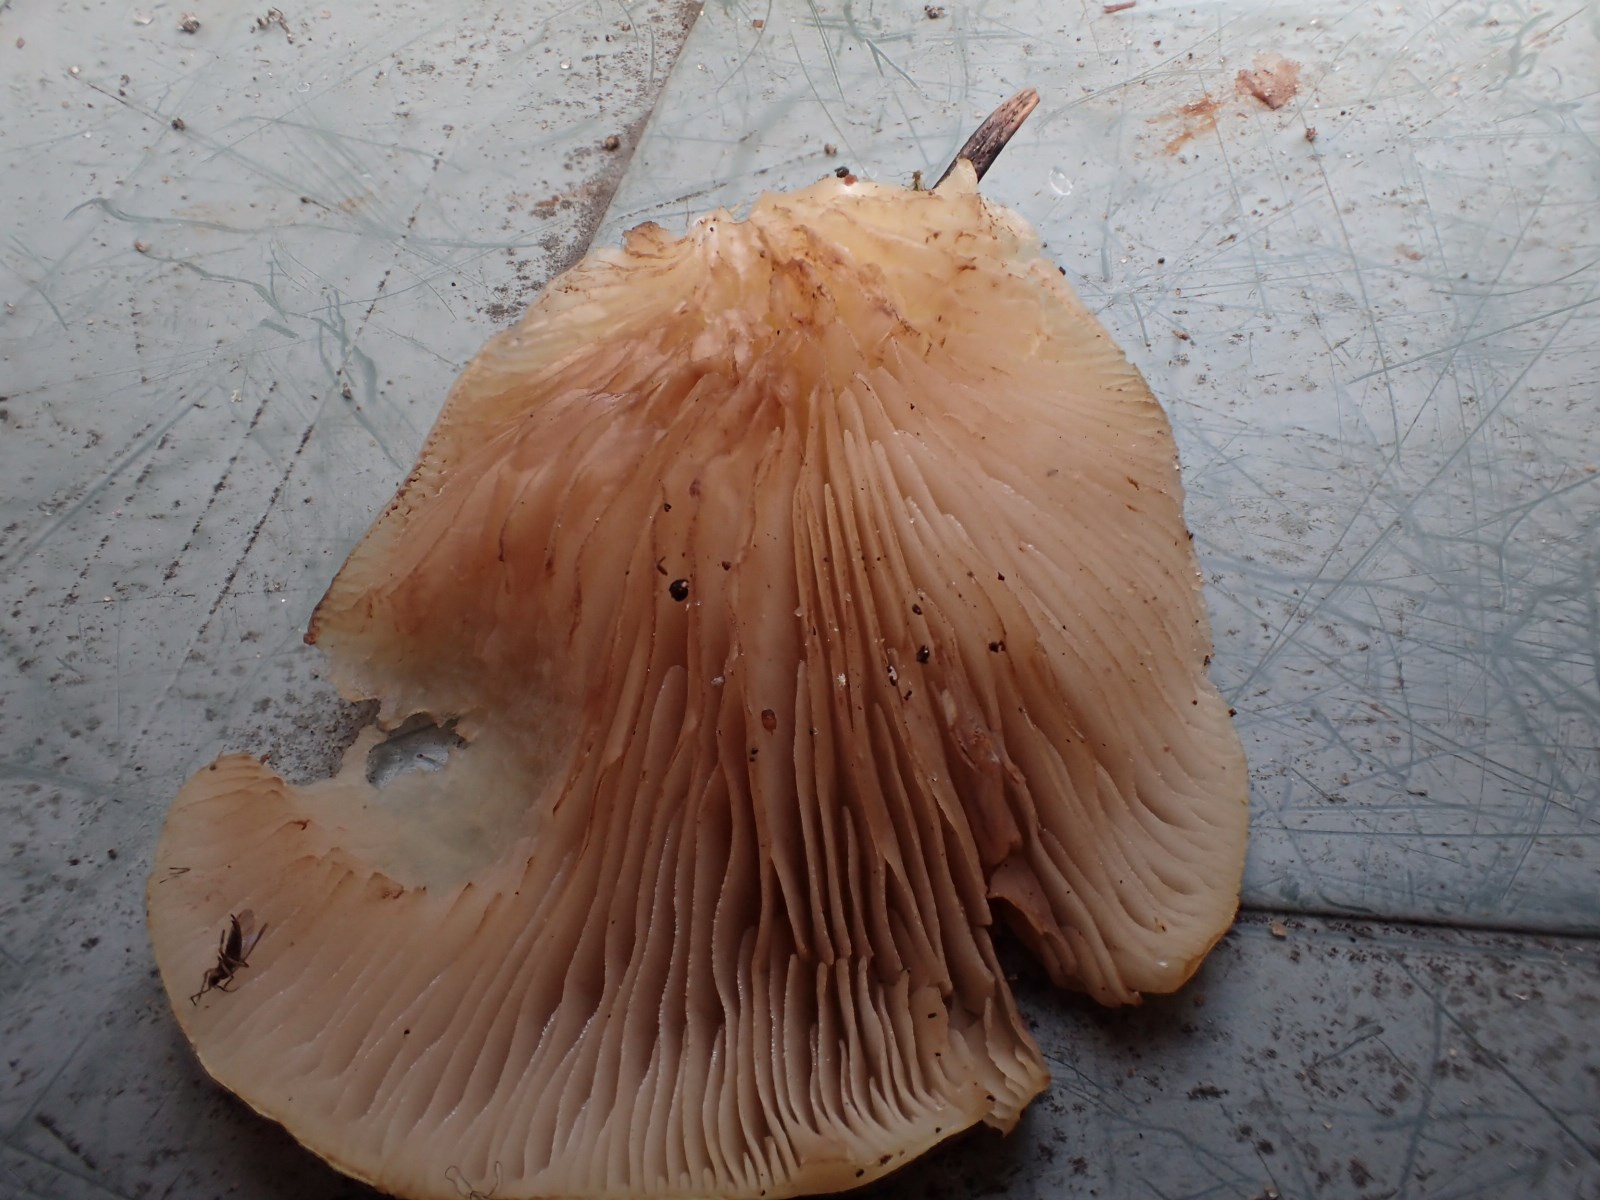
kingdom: Fungi
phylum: Basidiomycota
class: Agaricomycetes
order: Agaricales
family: Crepidotaceae
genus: Crepidotus
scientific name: Crepidotus mollis
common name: blød muslingesvamp
